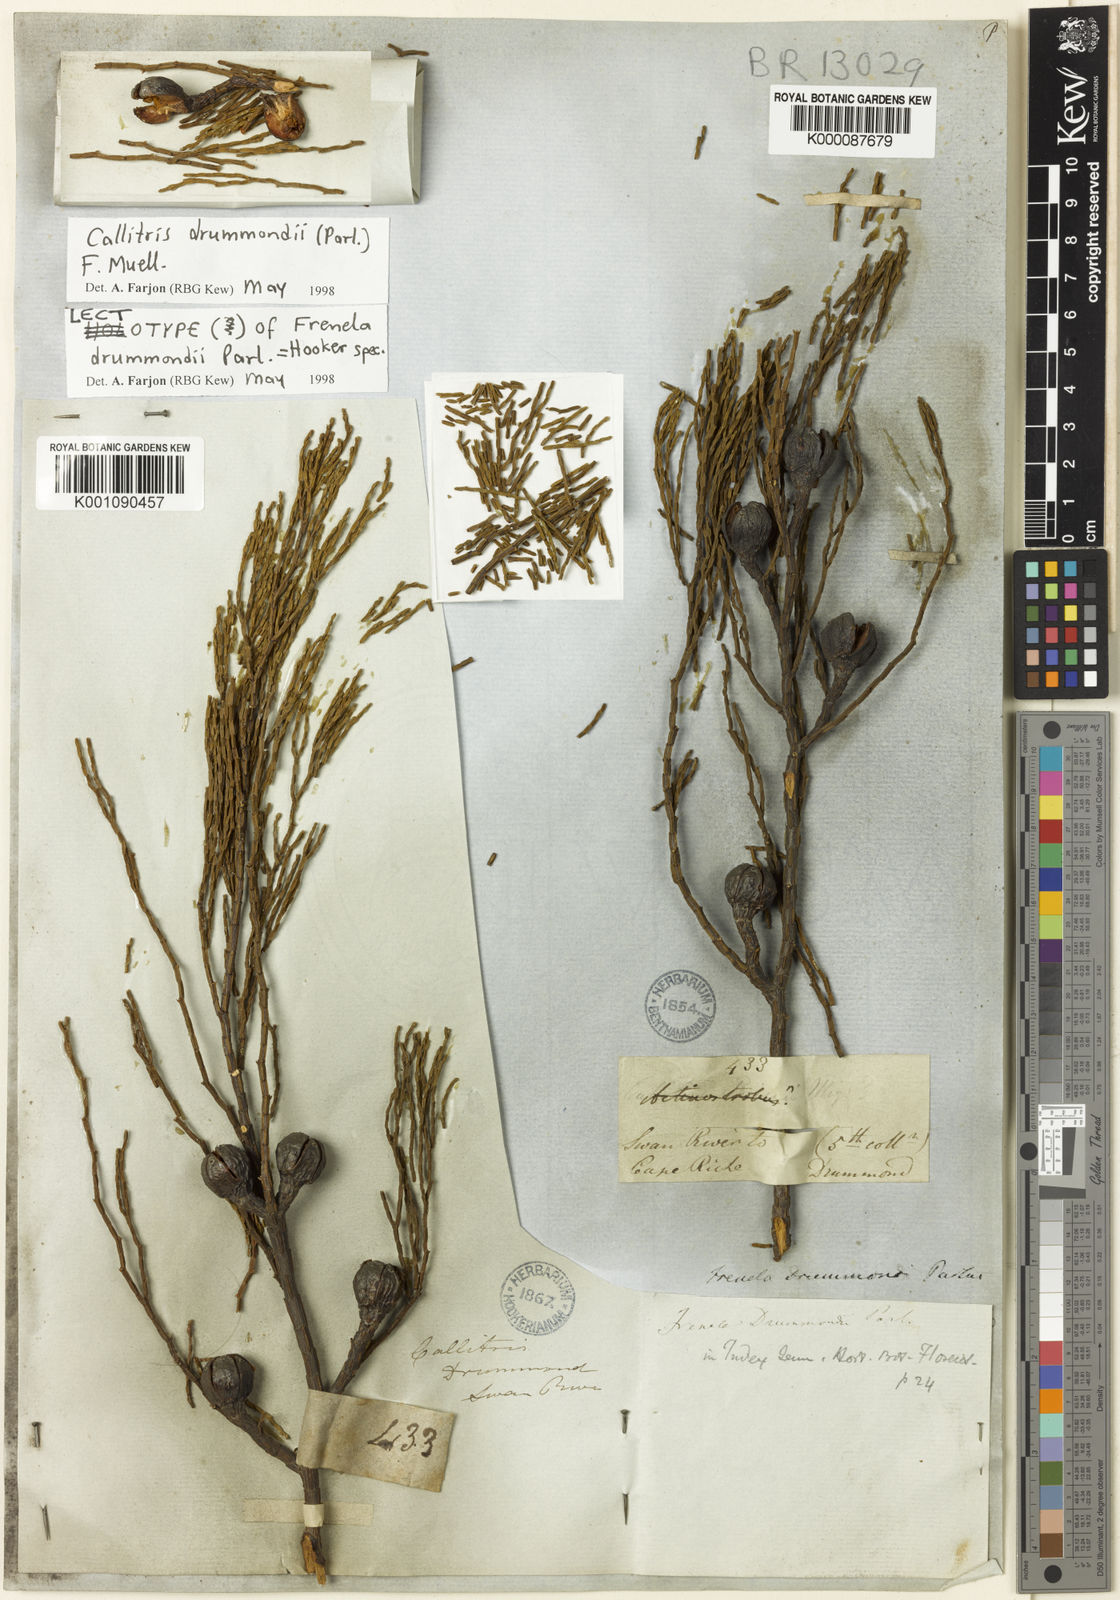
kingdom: Plantae
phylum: Tracheophyta
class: Pinopsida
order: Pinales
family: Cupressaceae
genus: Callitris
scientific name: Callitris drummondii
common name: Drummond's cypress-pine
